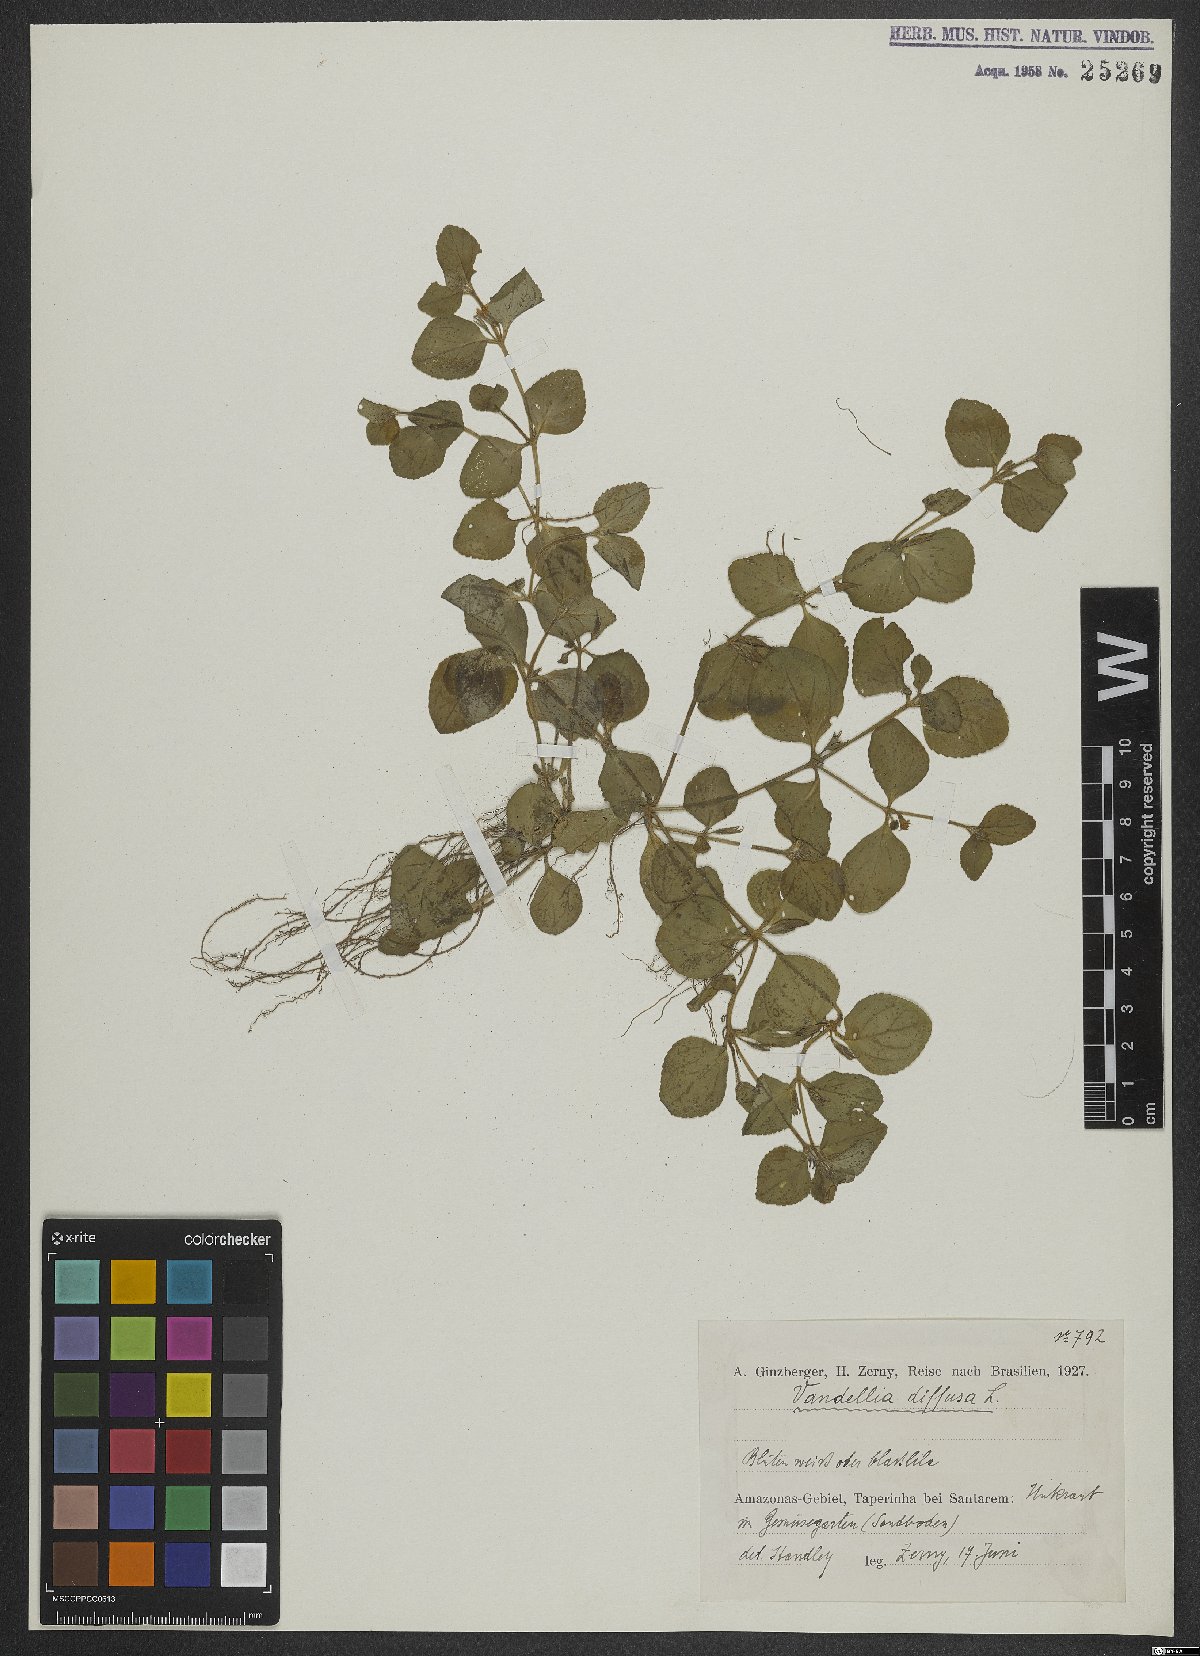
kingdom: Plantae
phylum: Tracheophyta
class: Magnoliopsida
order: Lamiales
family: Linderniaceae
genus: Vandellia
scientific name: Vandellia diffusa
